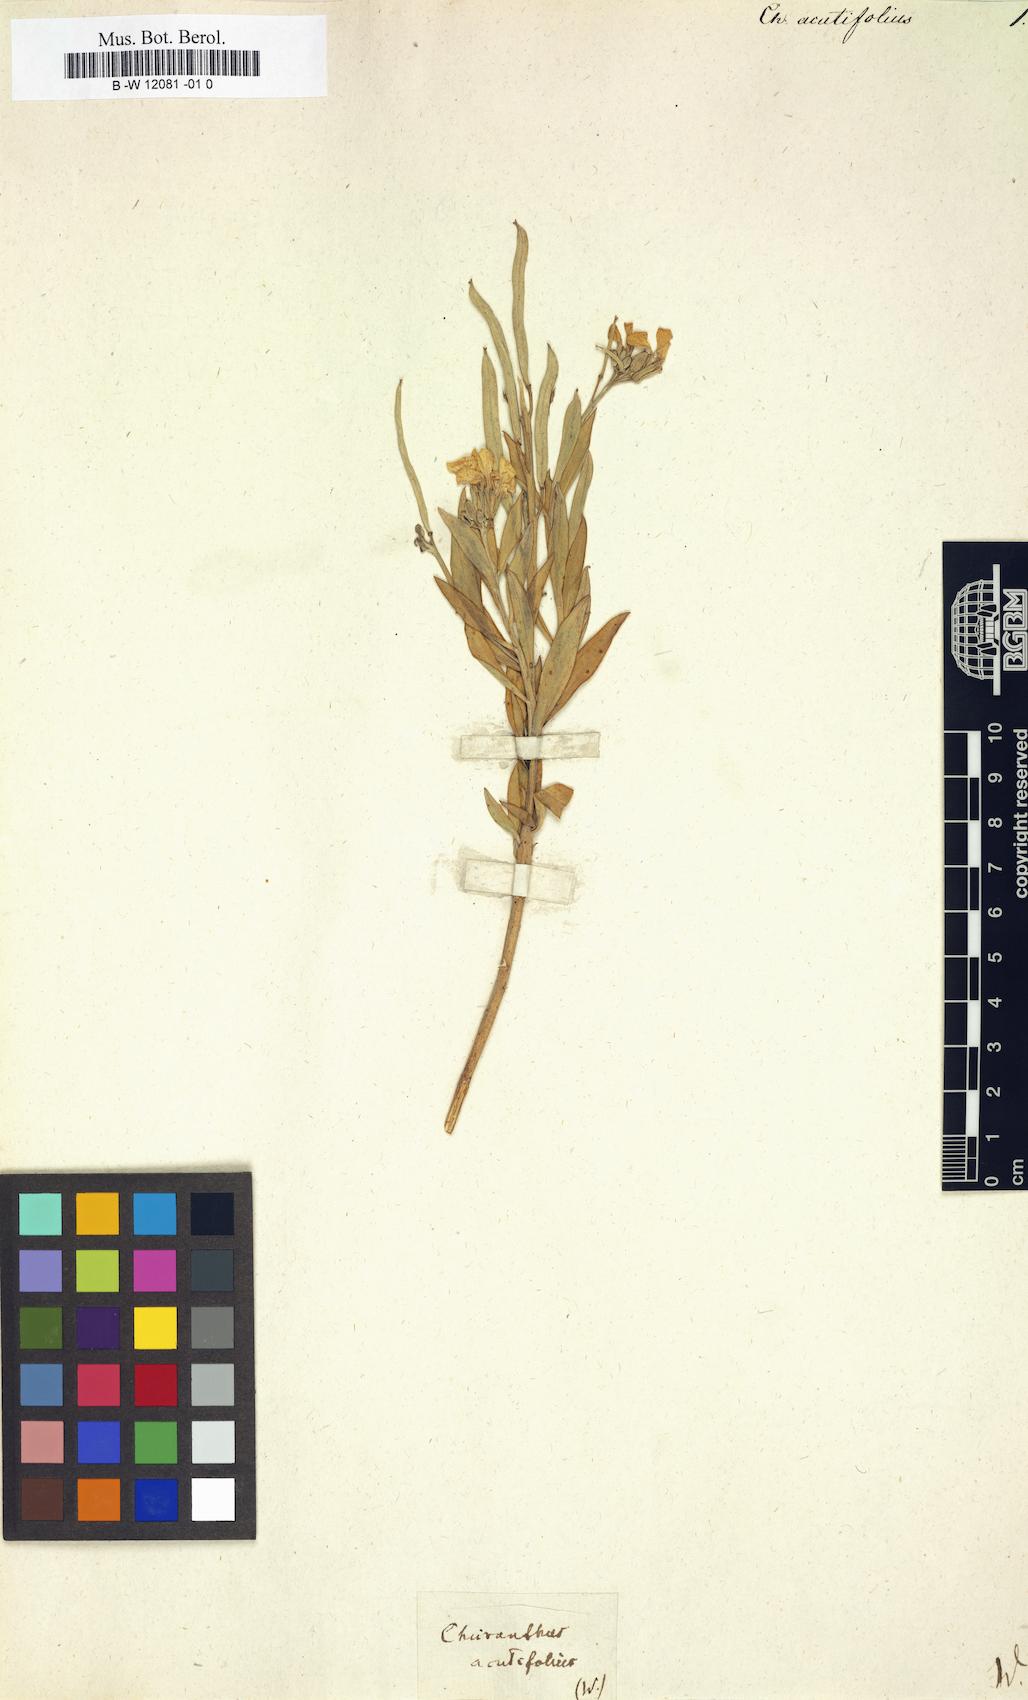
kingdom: Plantae
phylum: Tracheophyta
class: Magnoliopsida
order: Brassicales
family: Brassicaceae
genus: Erysimum
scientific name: Erysimum
